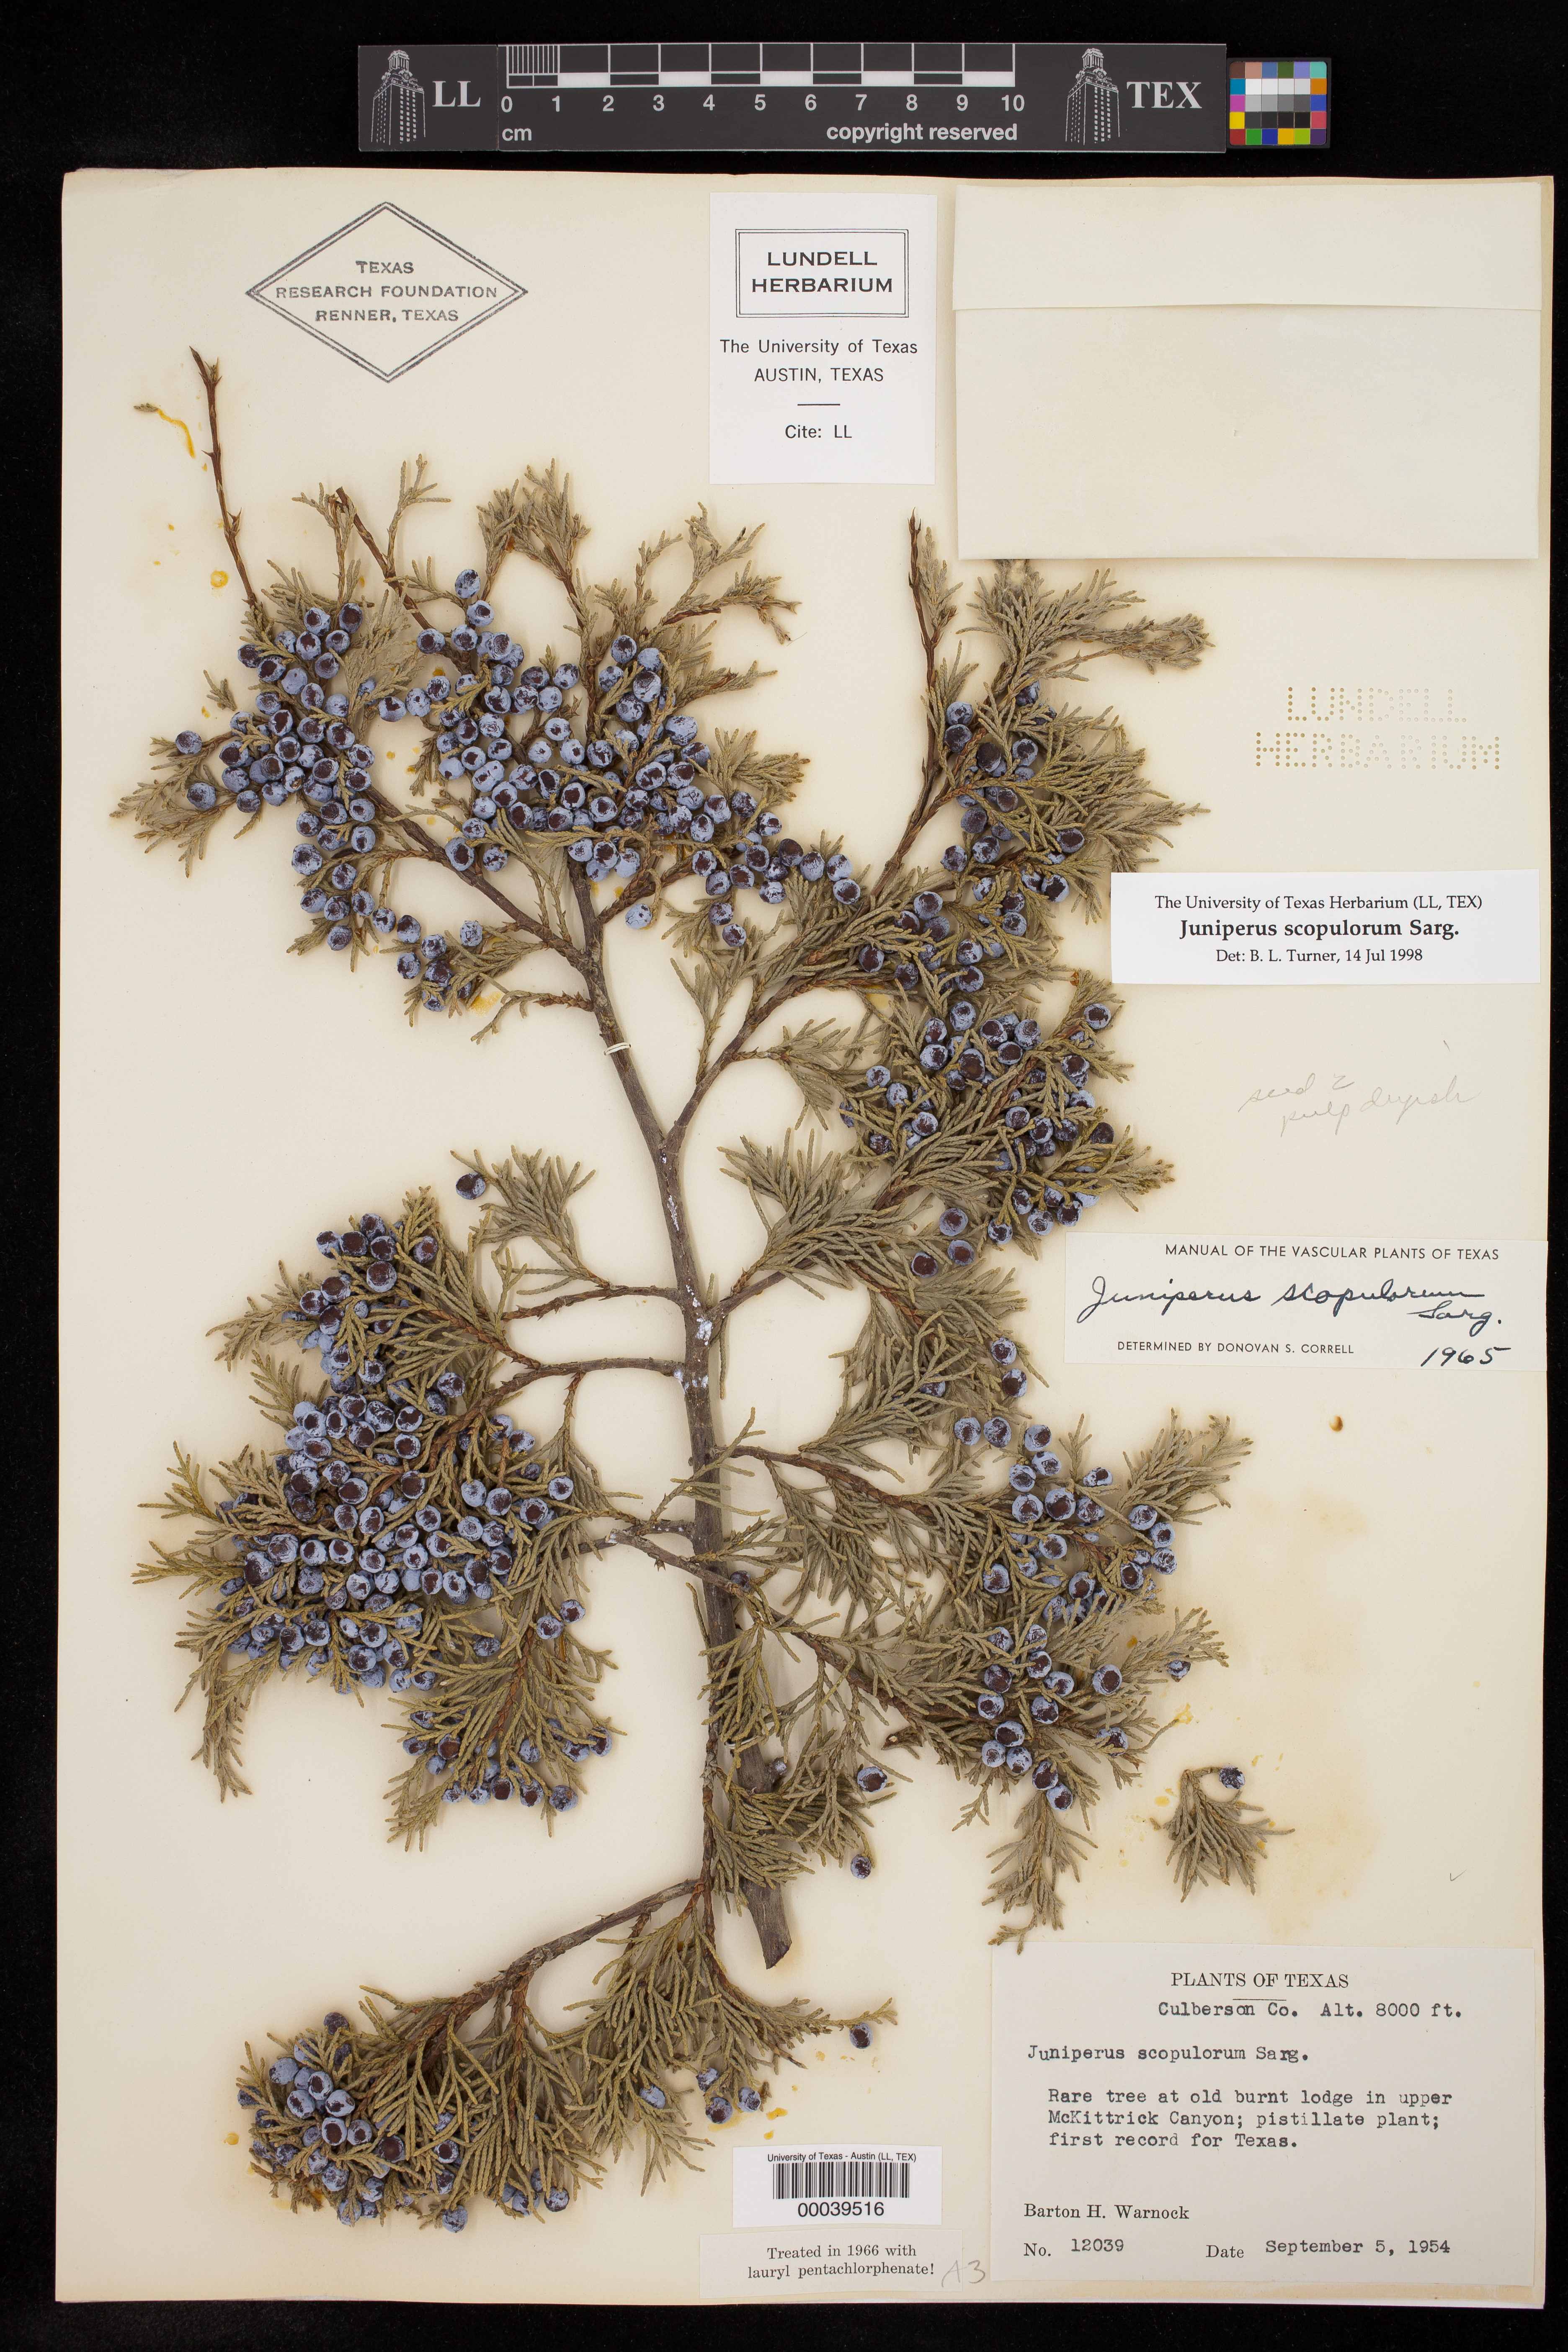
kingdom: Plantae
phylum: Tracheophyta
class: Pinopsida
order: Pinales
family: Cupressaceae
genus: Juniperus
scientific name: Juniperus scopulorum
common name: Rocky mountain juniper
